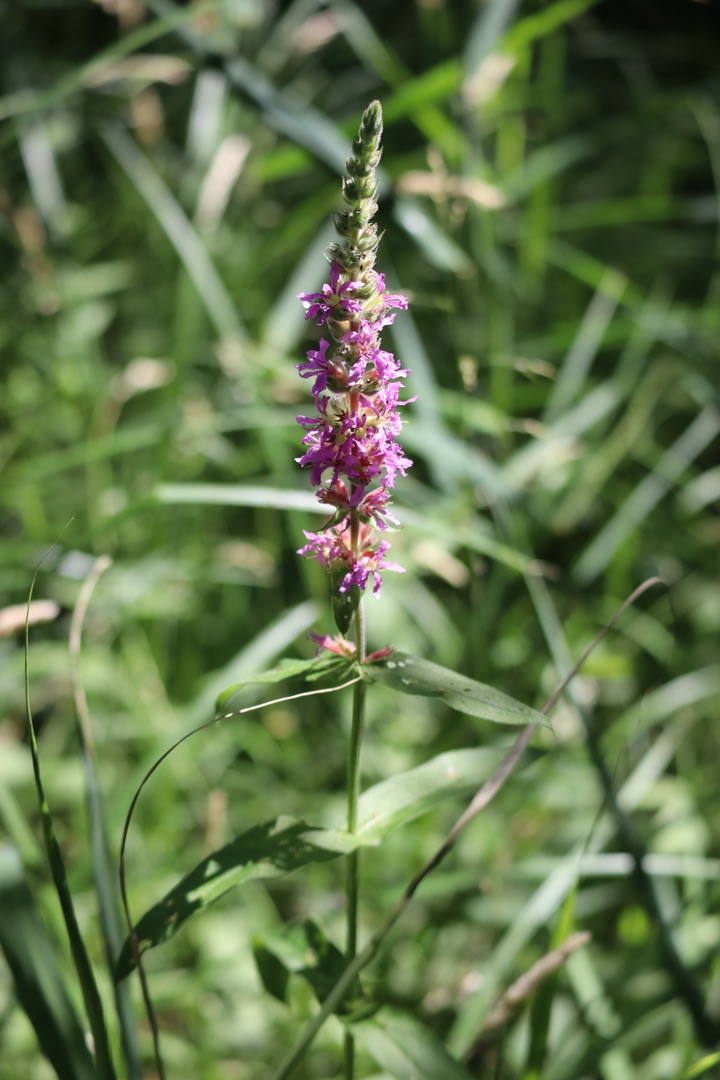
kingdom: Plantae
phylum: Tracheophyta
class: Magnoliopsida
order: Myrtales
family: Lythraceae
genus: Lythrum
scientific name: Lythrum salicaria
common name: Kattehale
